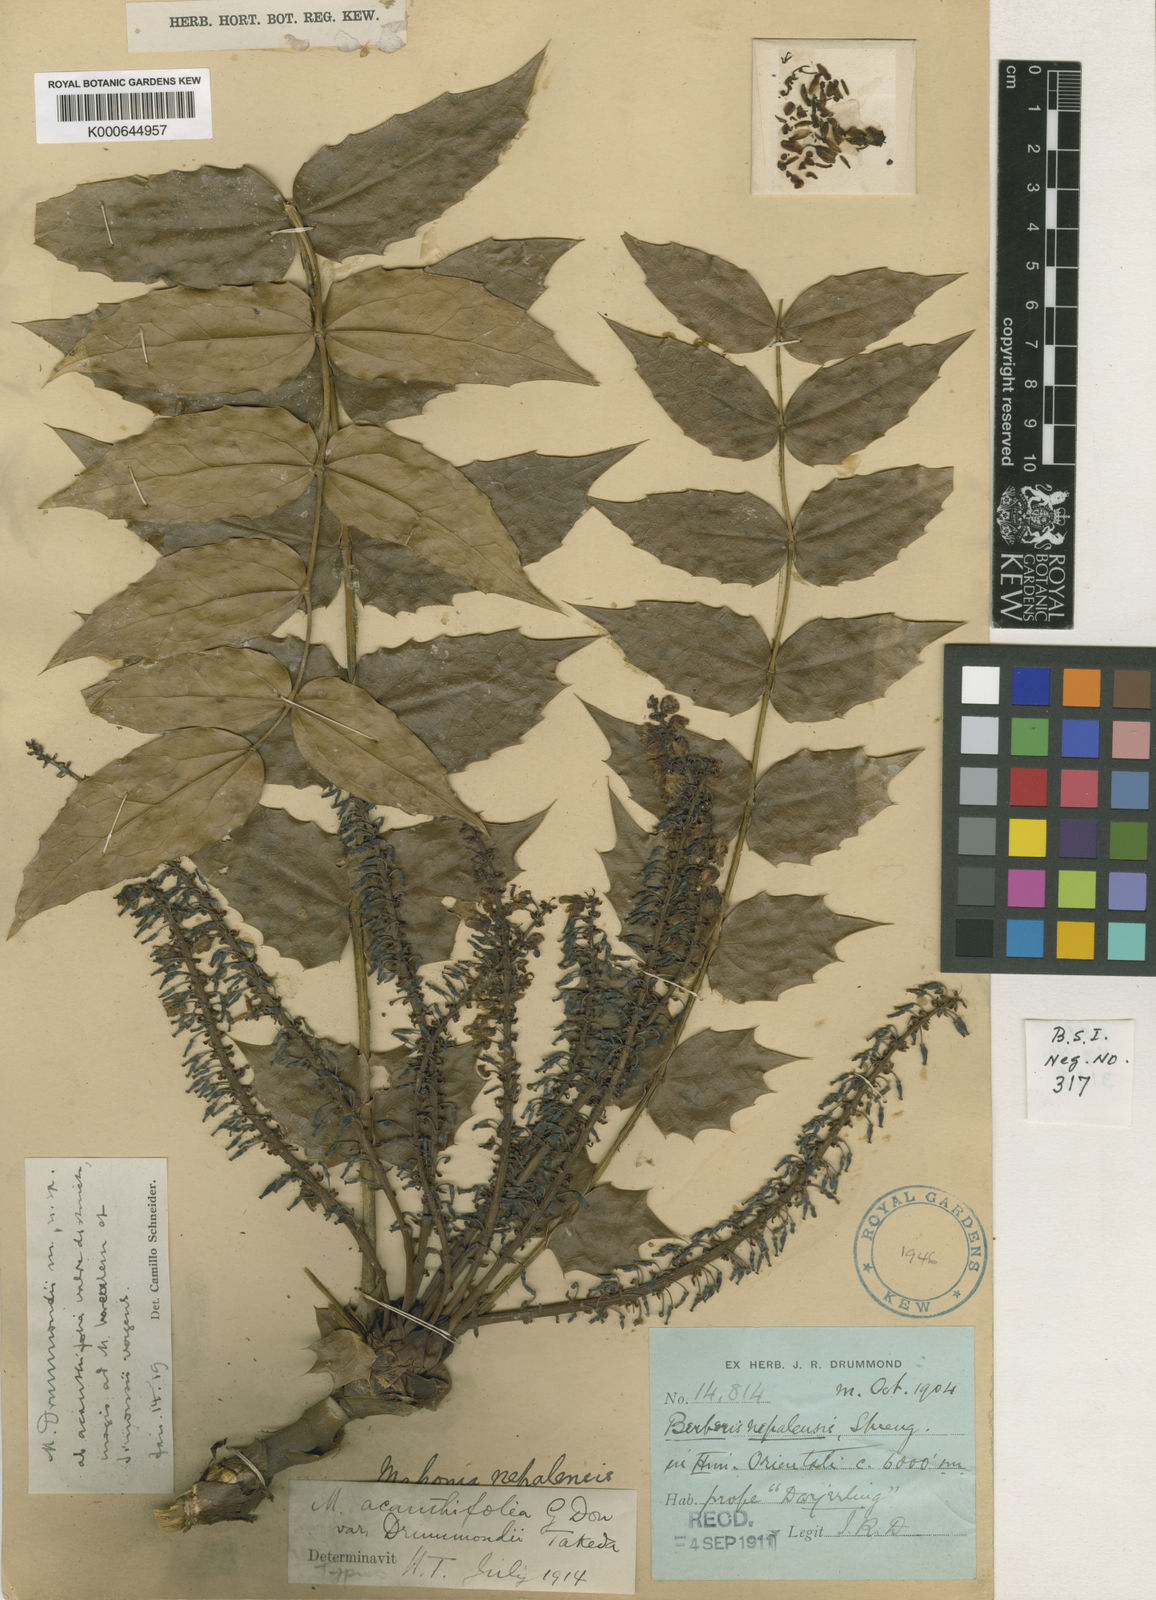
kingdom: Plantae
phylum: Tracheophyta
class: Magnoliopsida
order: Ranunculales
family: Berberidaceae
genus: Mahonia
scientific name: Mahonia napaulensis
